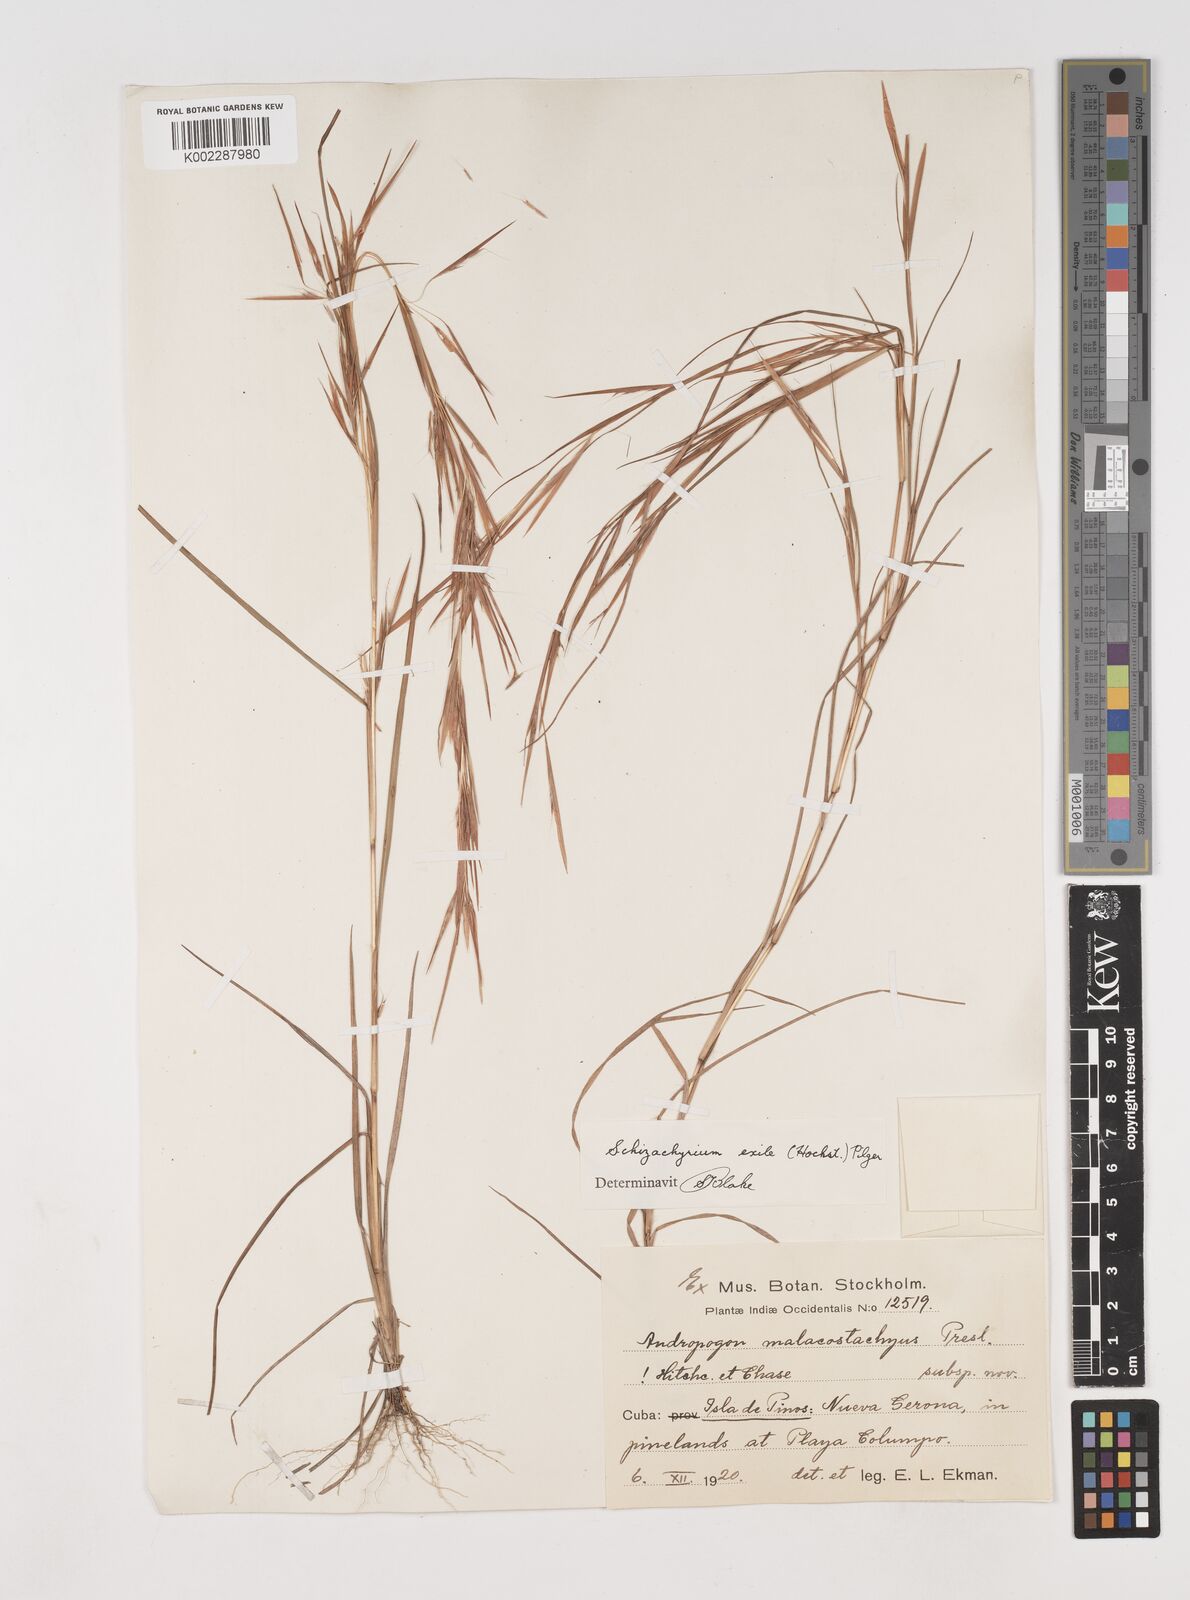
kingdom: Plantae
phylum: Tracheophyta
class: Liliopsida
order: Poales
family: Poaceae
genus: Schizachyrium
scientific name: Schizachyrium exile
